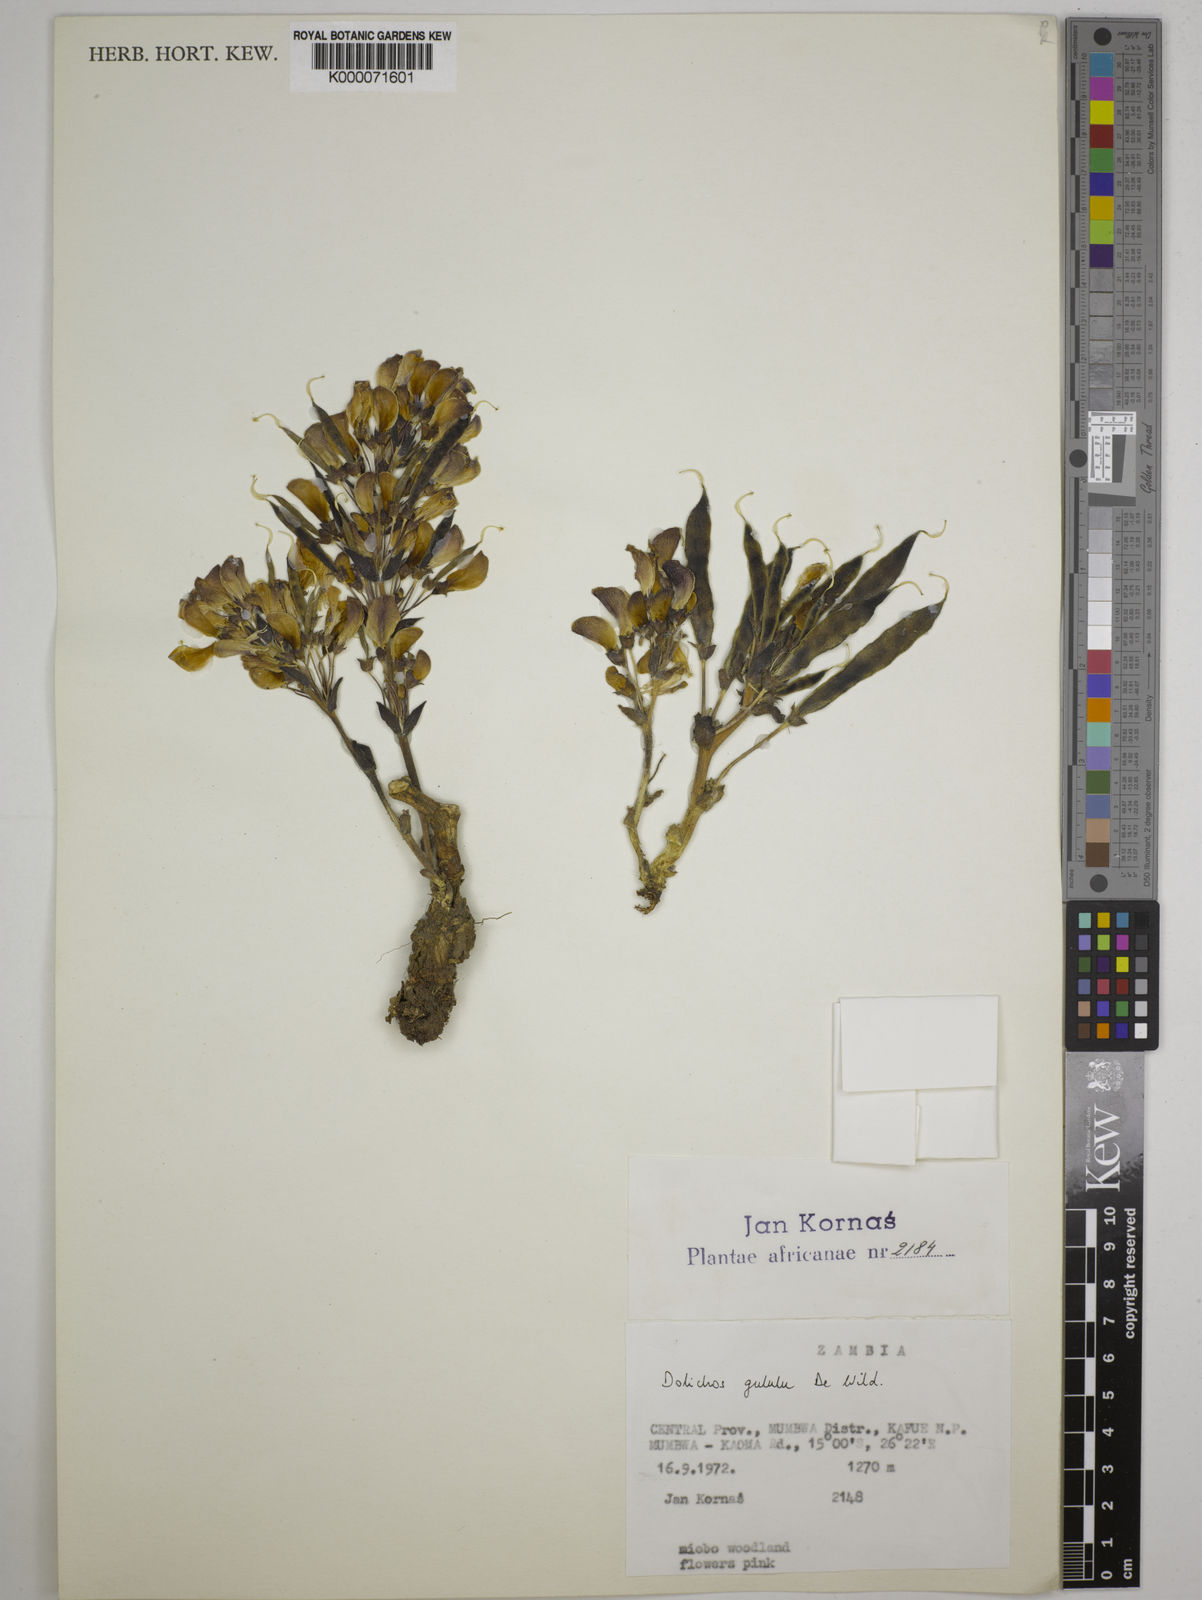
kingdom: Plantae
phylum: Tracheophyta
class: Magnoliopsida
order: Fabales
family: Fabaceae
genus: Dolichos
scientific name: Dolichos gululu
